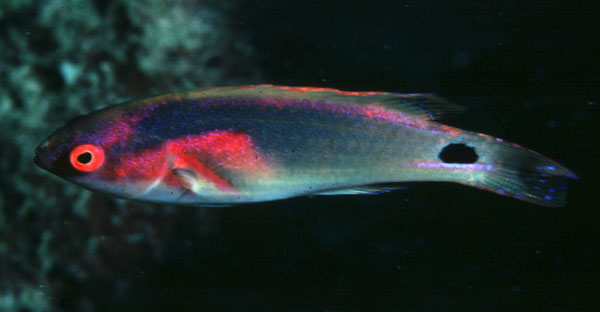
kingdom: Animalia
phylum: Chordata
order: Perciformes
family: Labridae
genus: Cirrhilabrus
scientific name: Cirrhilabrus exquisitus
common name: Exquisite wrasse
